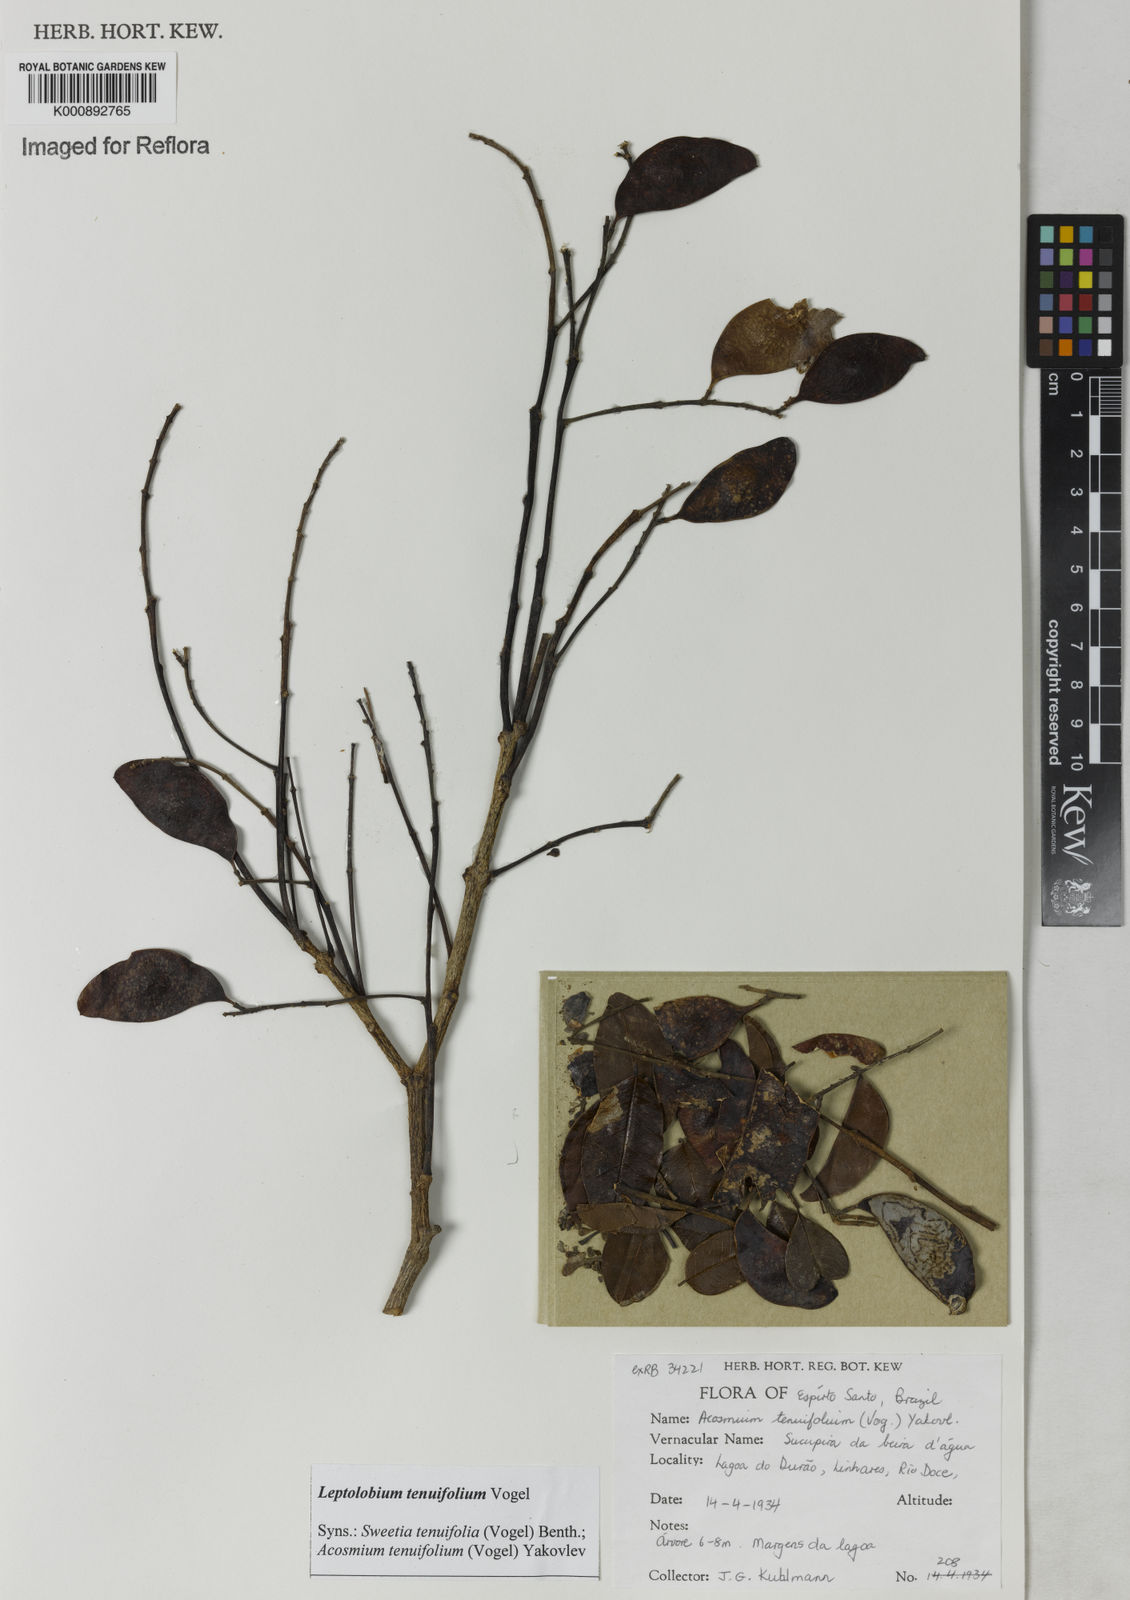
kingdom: Plantae
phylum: Tracheophyta
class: Magnoliopsida
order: Fabales
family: Fabaceae
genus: Leptolobium
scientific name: Leptolobium tenuifolium
